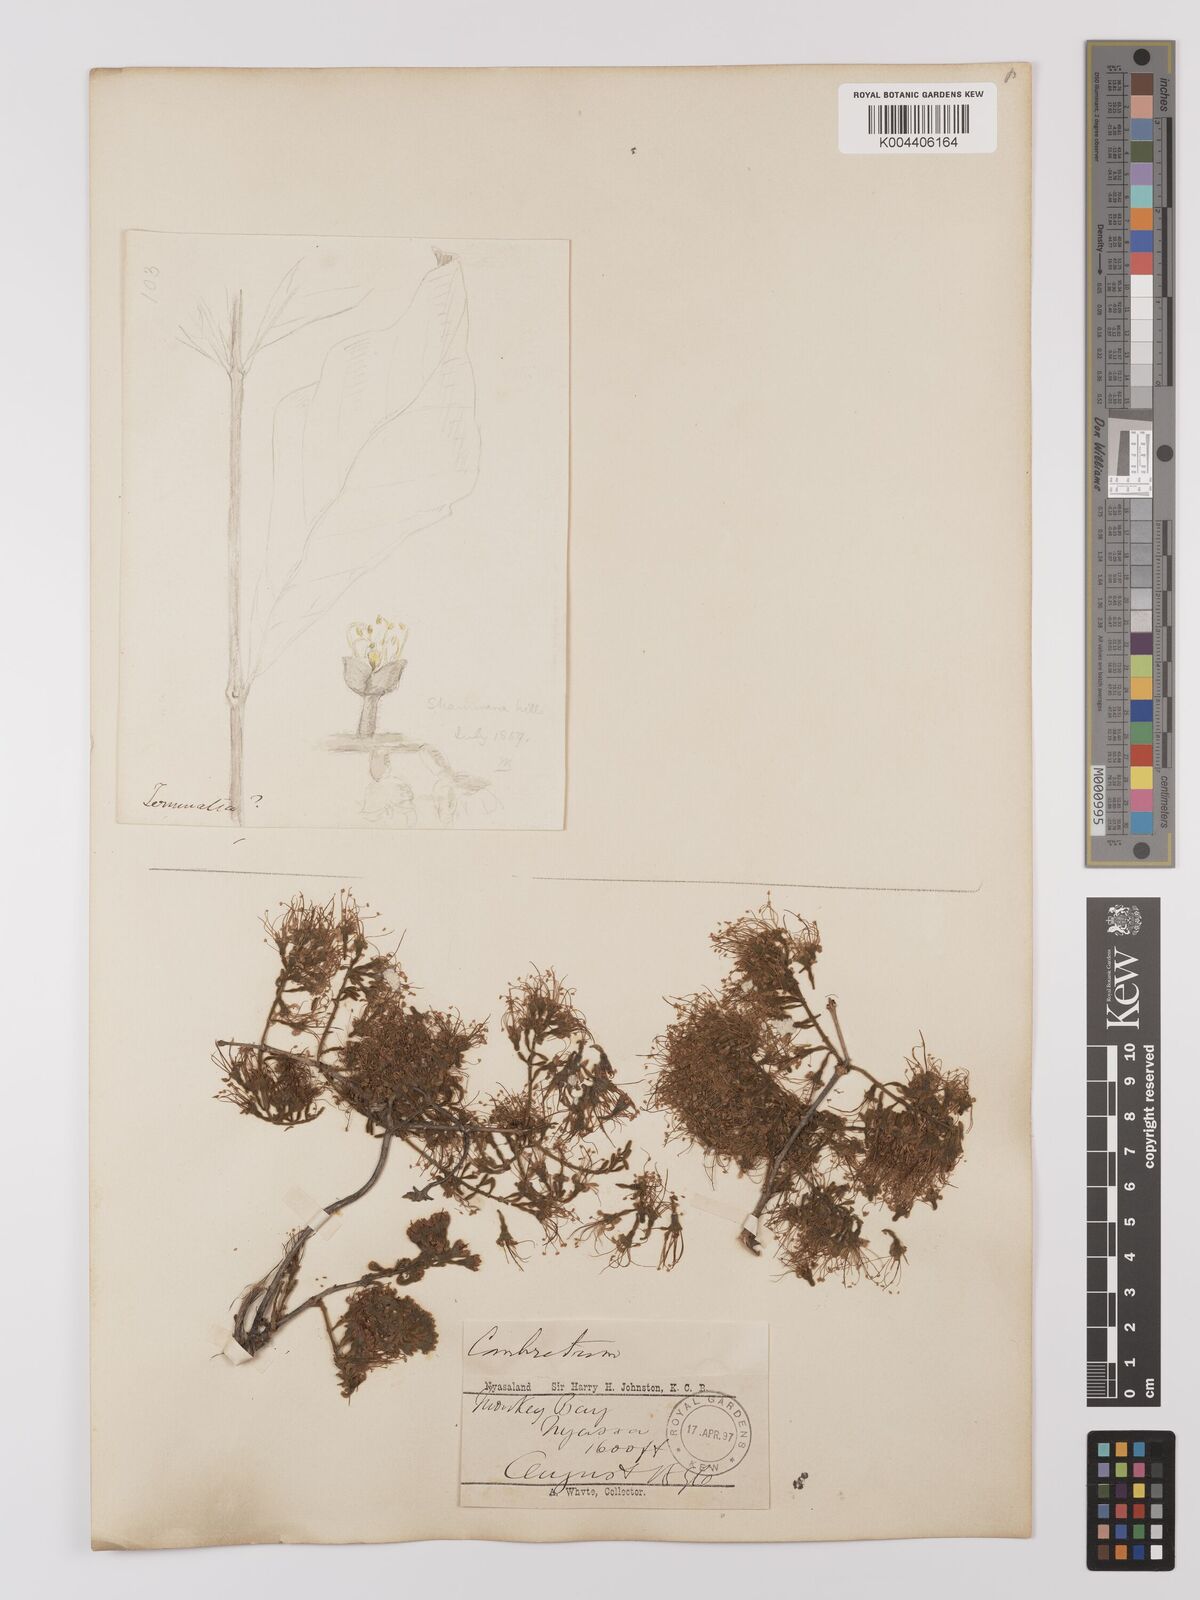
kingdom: Plantae
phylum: Tracheophyta
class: Magnoliopsida
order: Myrtales
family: Combretaceae
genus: Combretum
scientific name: Combretum
